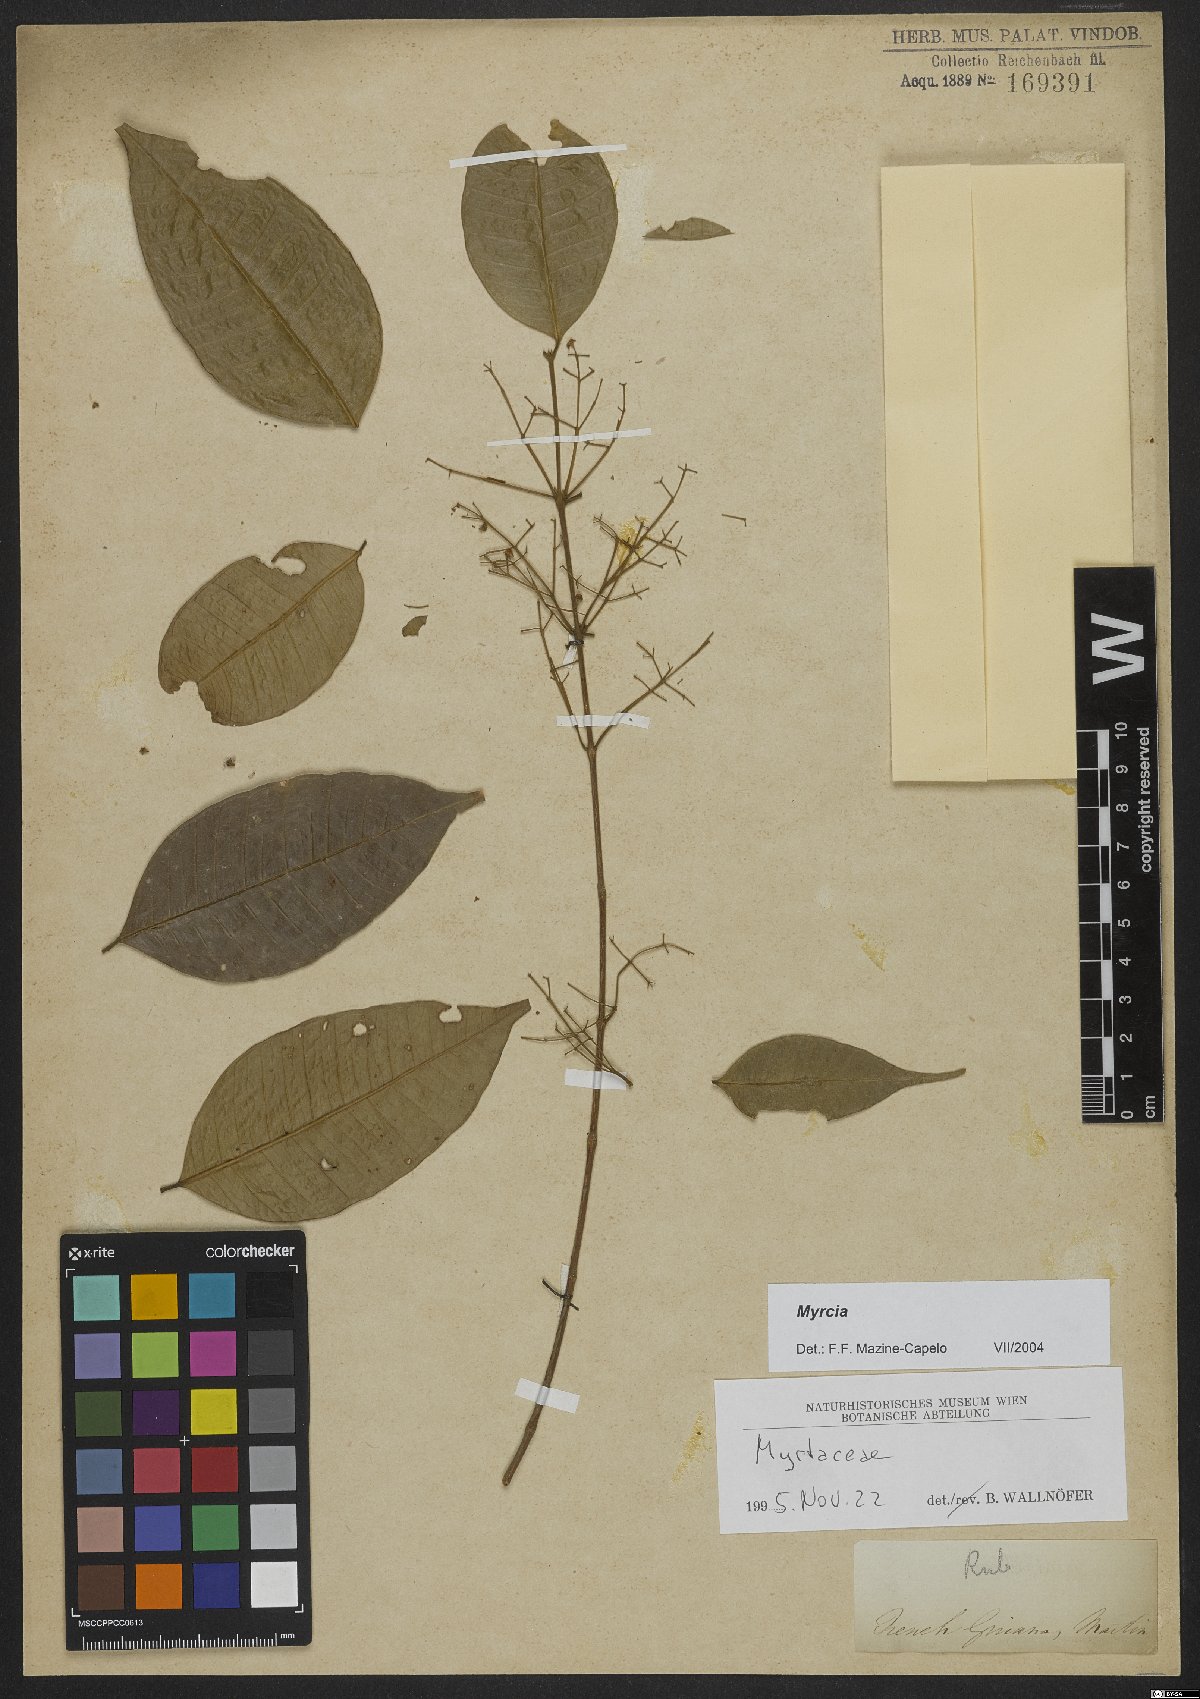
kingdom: Plantae
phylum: Tracheophyta
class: Magnoliopsida
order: Myrtales
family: Myrtaceae
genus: Myrcia
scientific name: Myrcia
